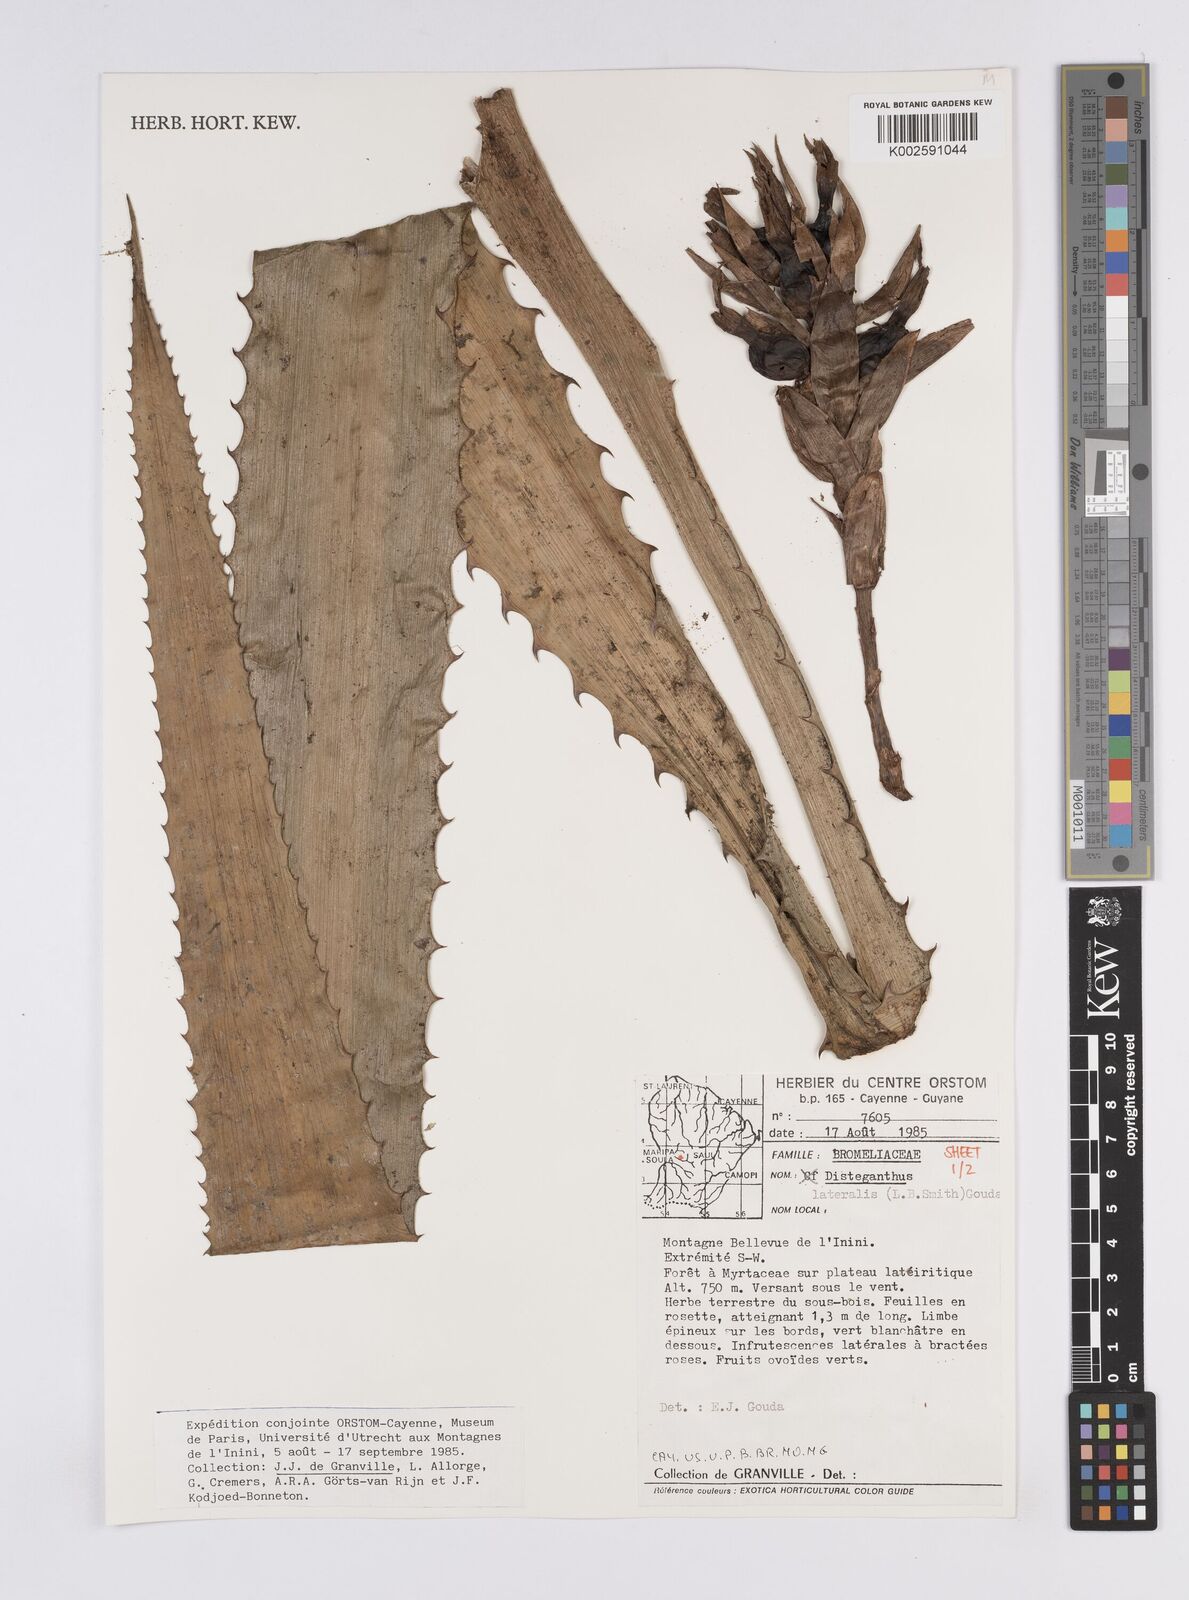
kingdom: Plantae
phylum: Tracheophyta
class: Liliopsida
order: Poales
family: Bromeliaceae
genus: Disteganthus
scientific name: Disteganthus lateralis
